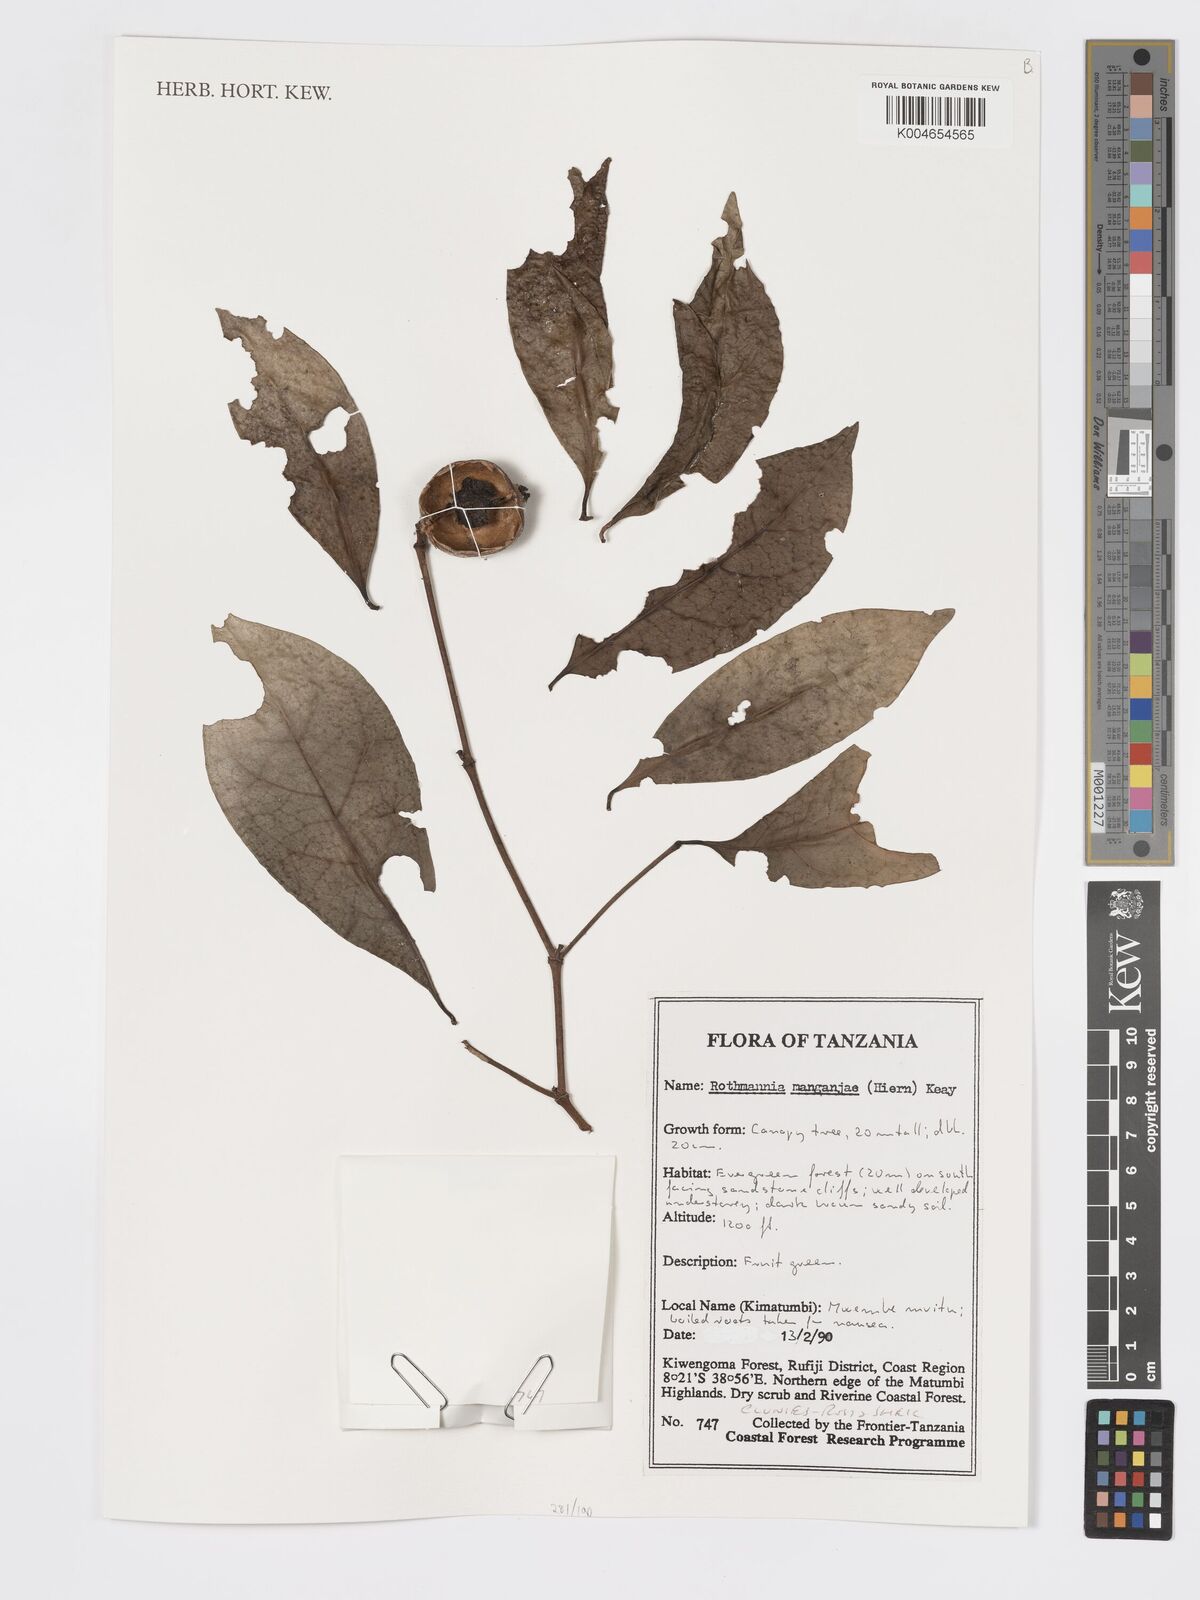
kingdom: Plantae
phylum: Tracheophyta
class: Magnoliopsida
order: Gentianales
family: Rubiaceae
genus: Rothmannia
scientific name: Rothmannia manganjae
